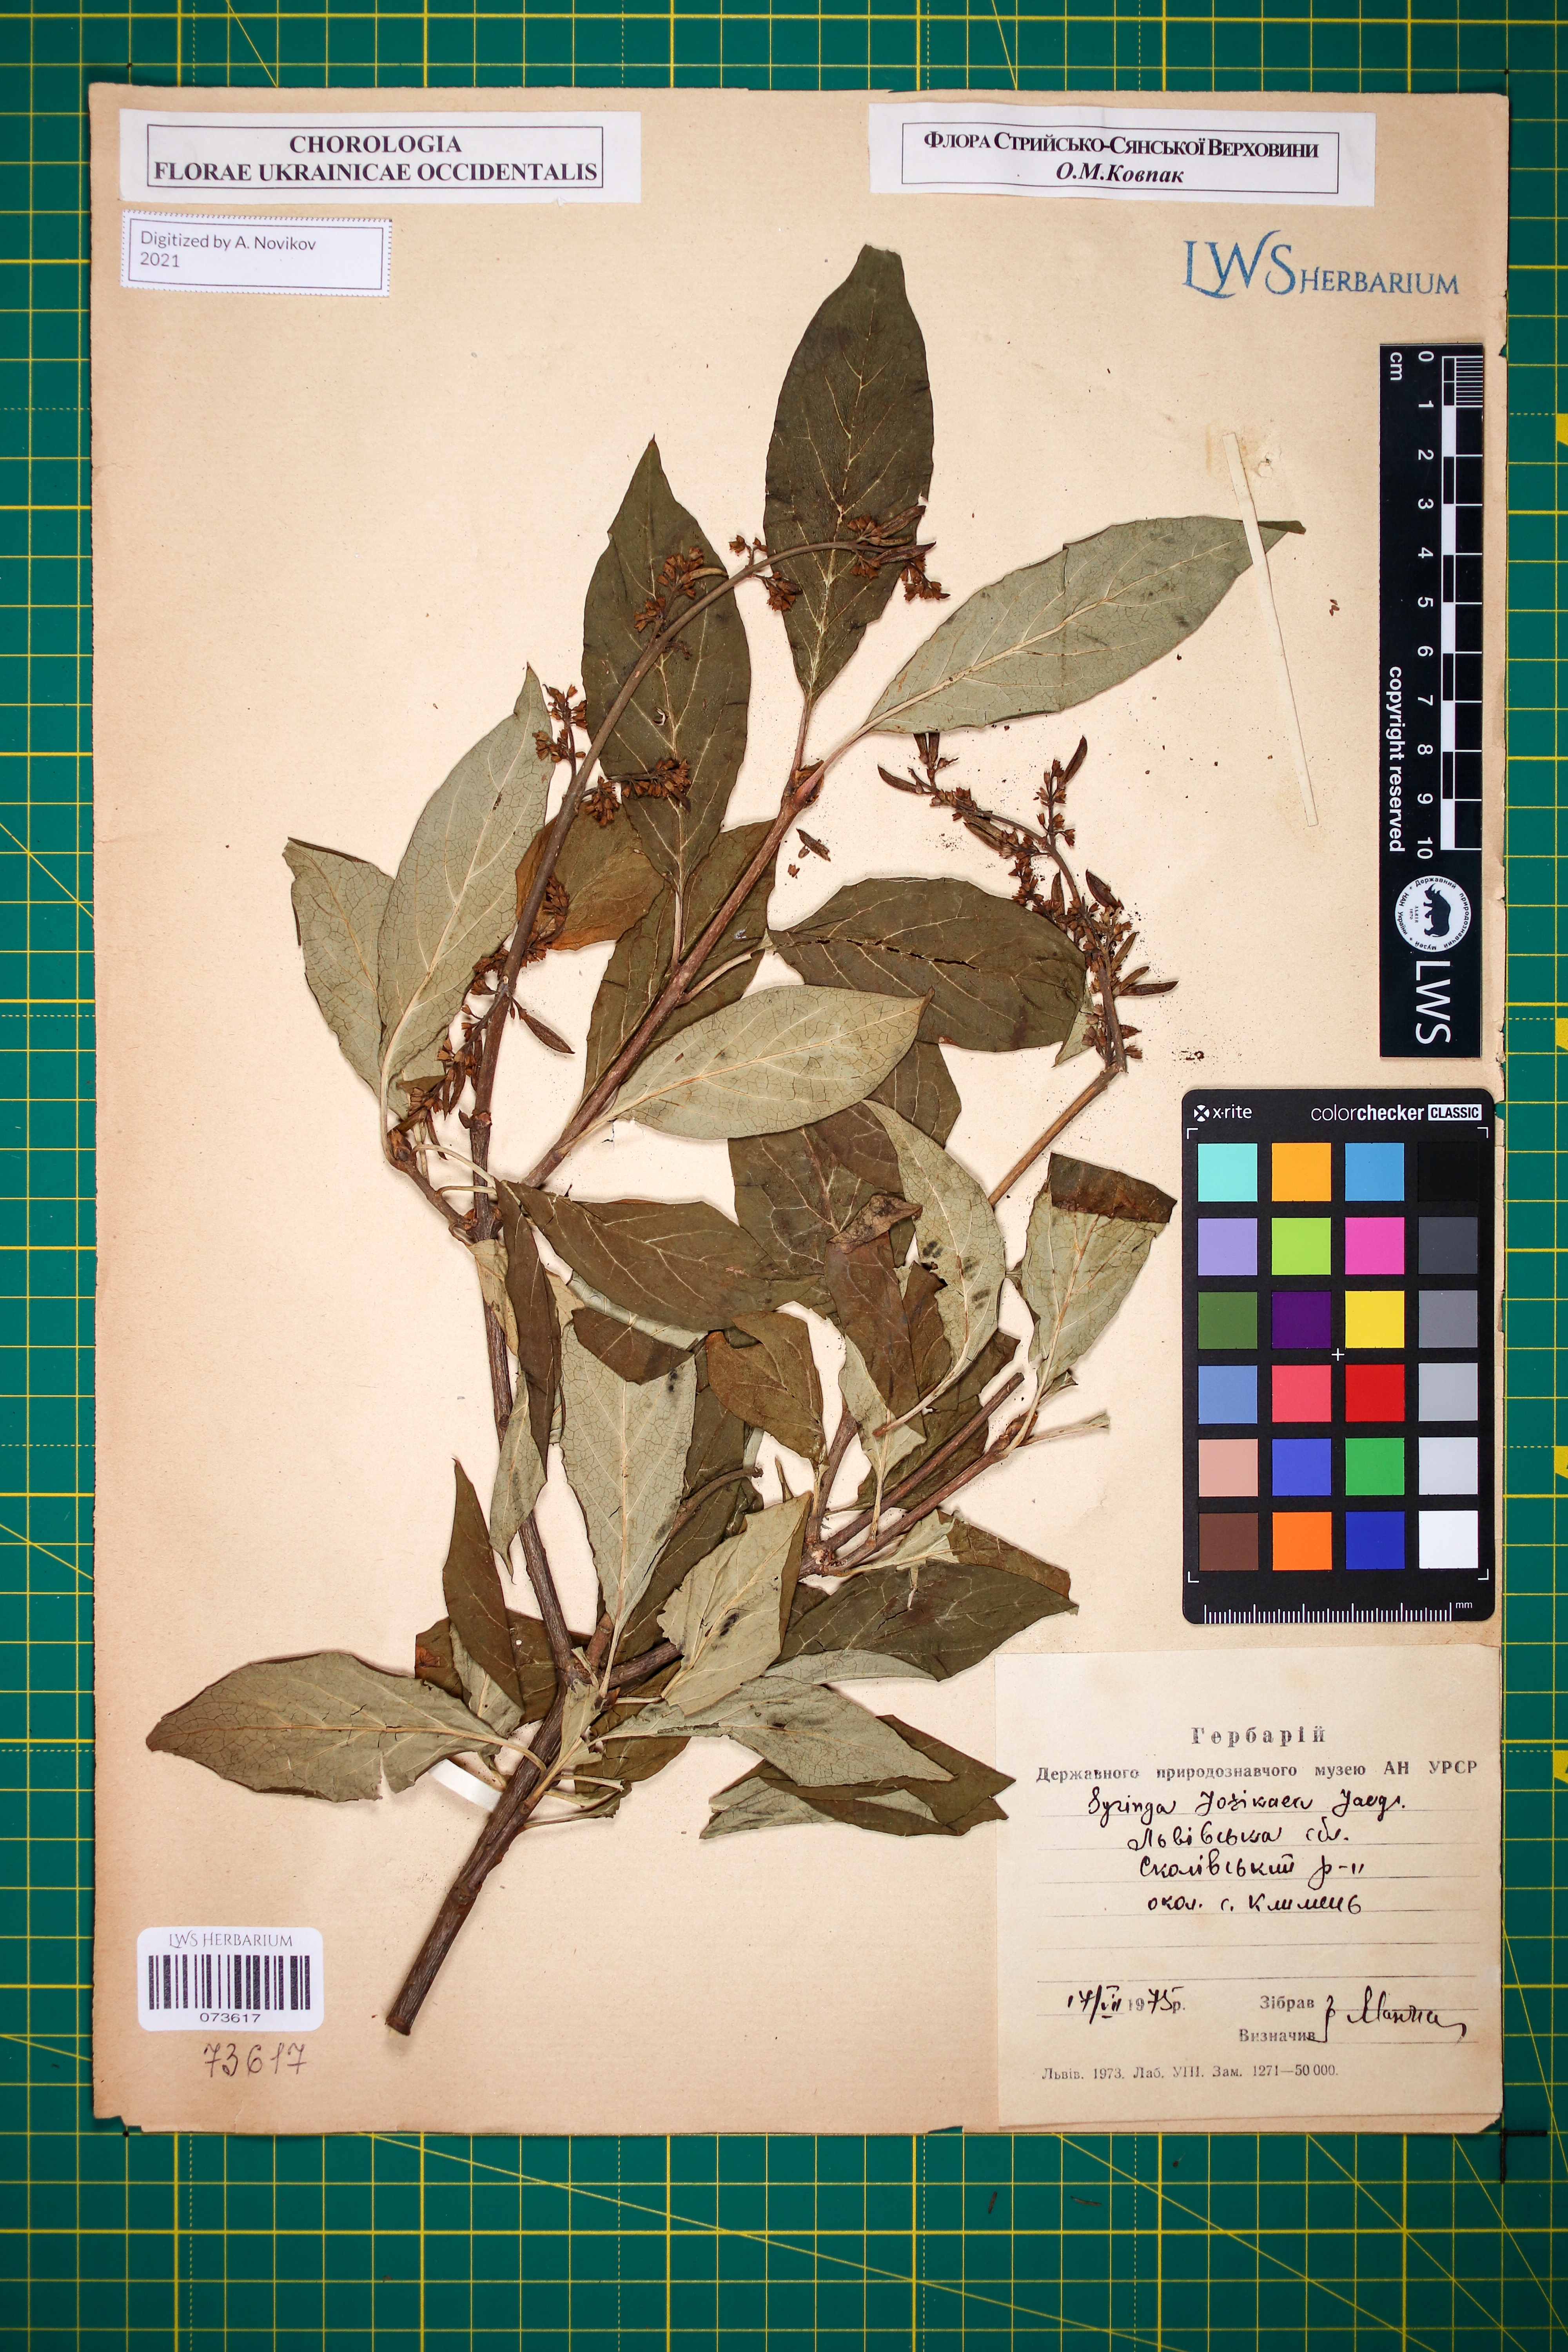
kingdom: Plantae
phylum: Tracheophyta
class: Magnoliopsida
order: Lamiales
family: Oleaceae
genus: Syringa
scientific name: Syringa josikaea
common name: Hungarian lilac
